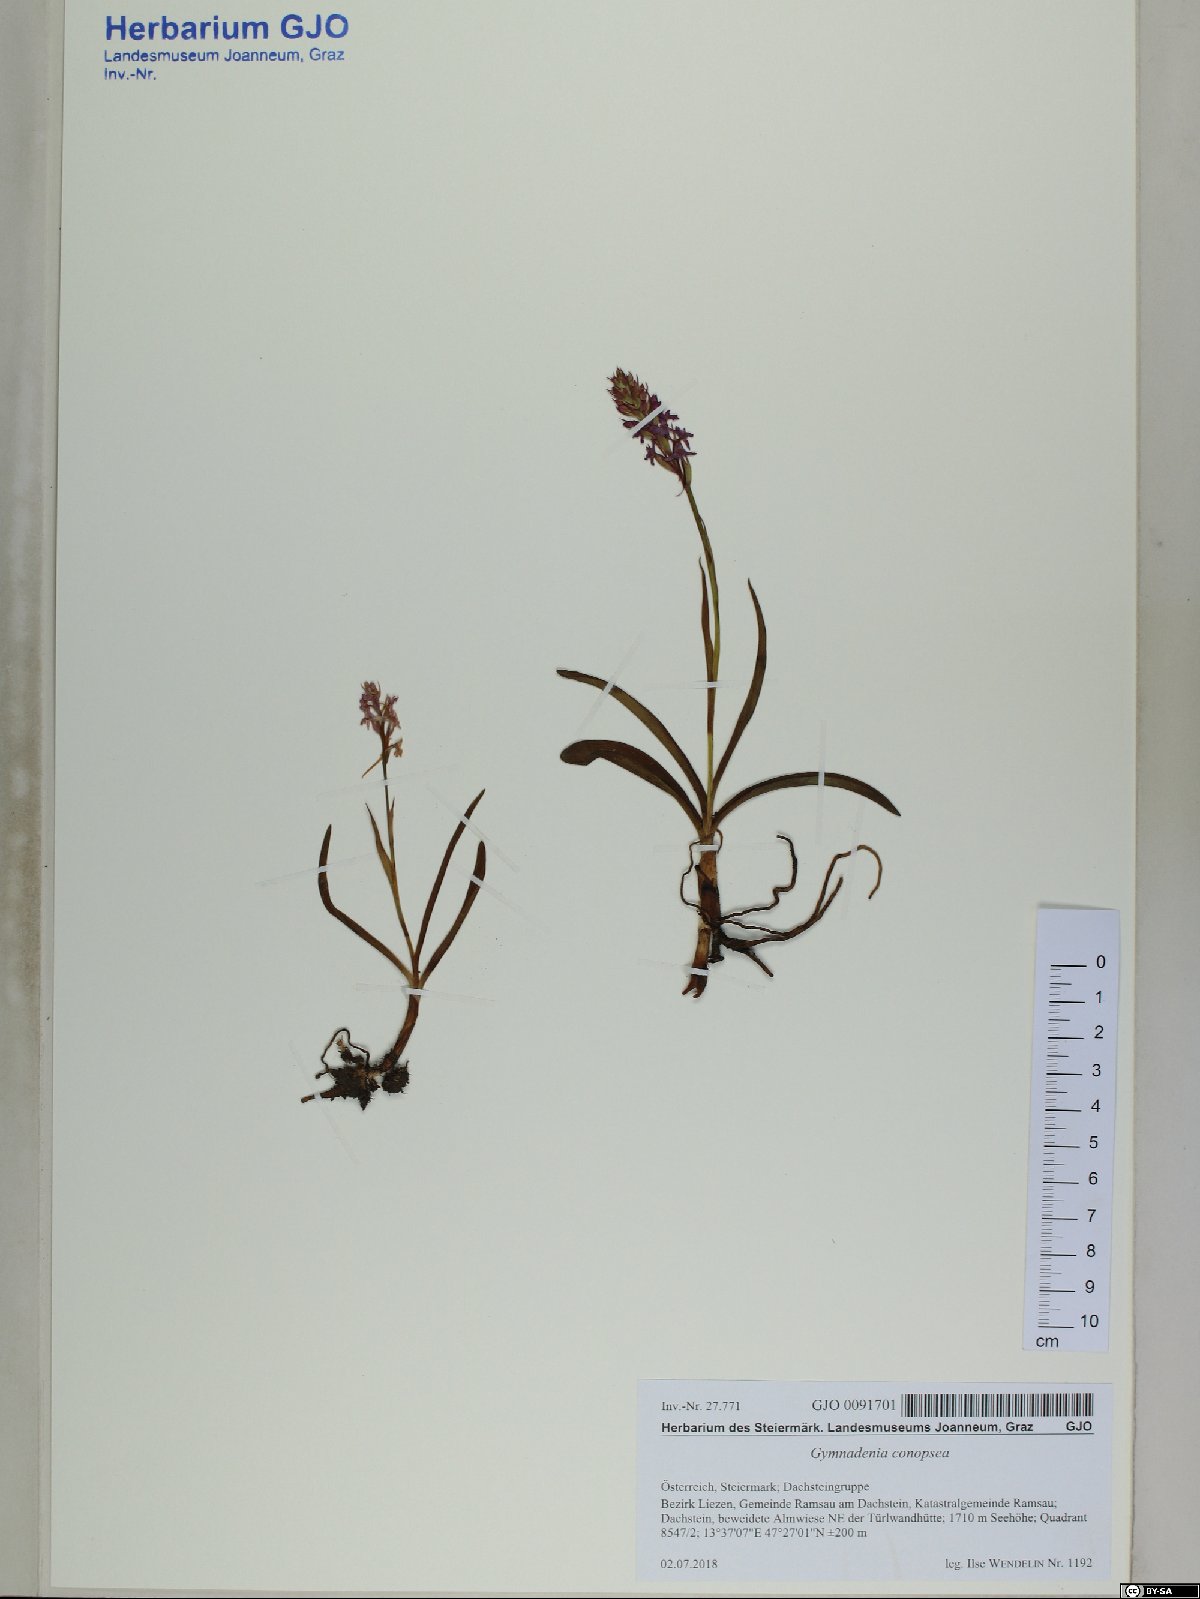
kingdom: Plantae
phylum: Tracheophyta
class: Liliopsida
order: Asparagales
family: Orchidaceae
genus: Gymnadenia
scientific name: Gymnadenia conopsea
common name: Fragrant orchid
